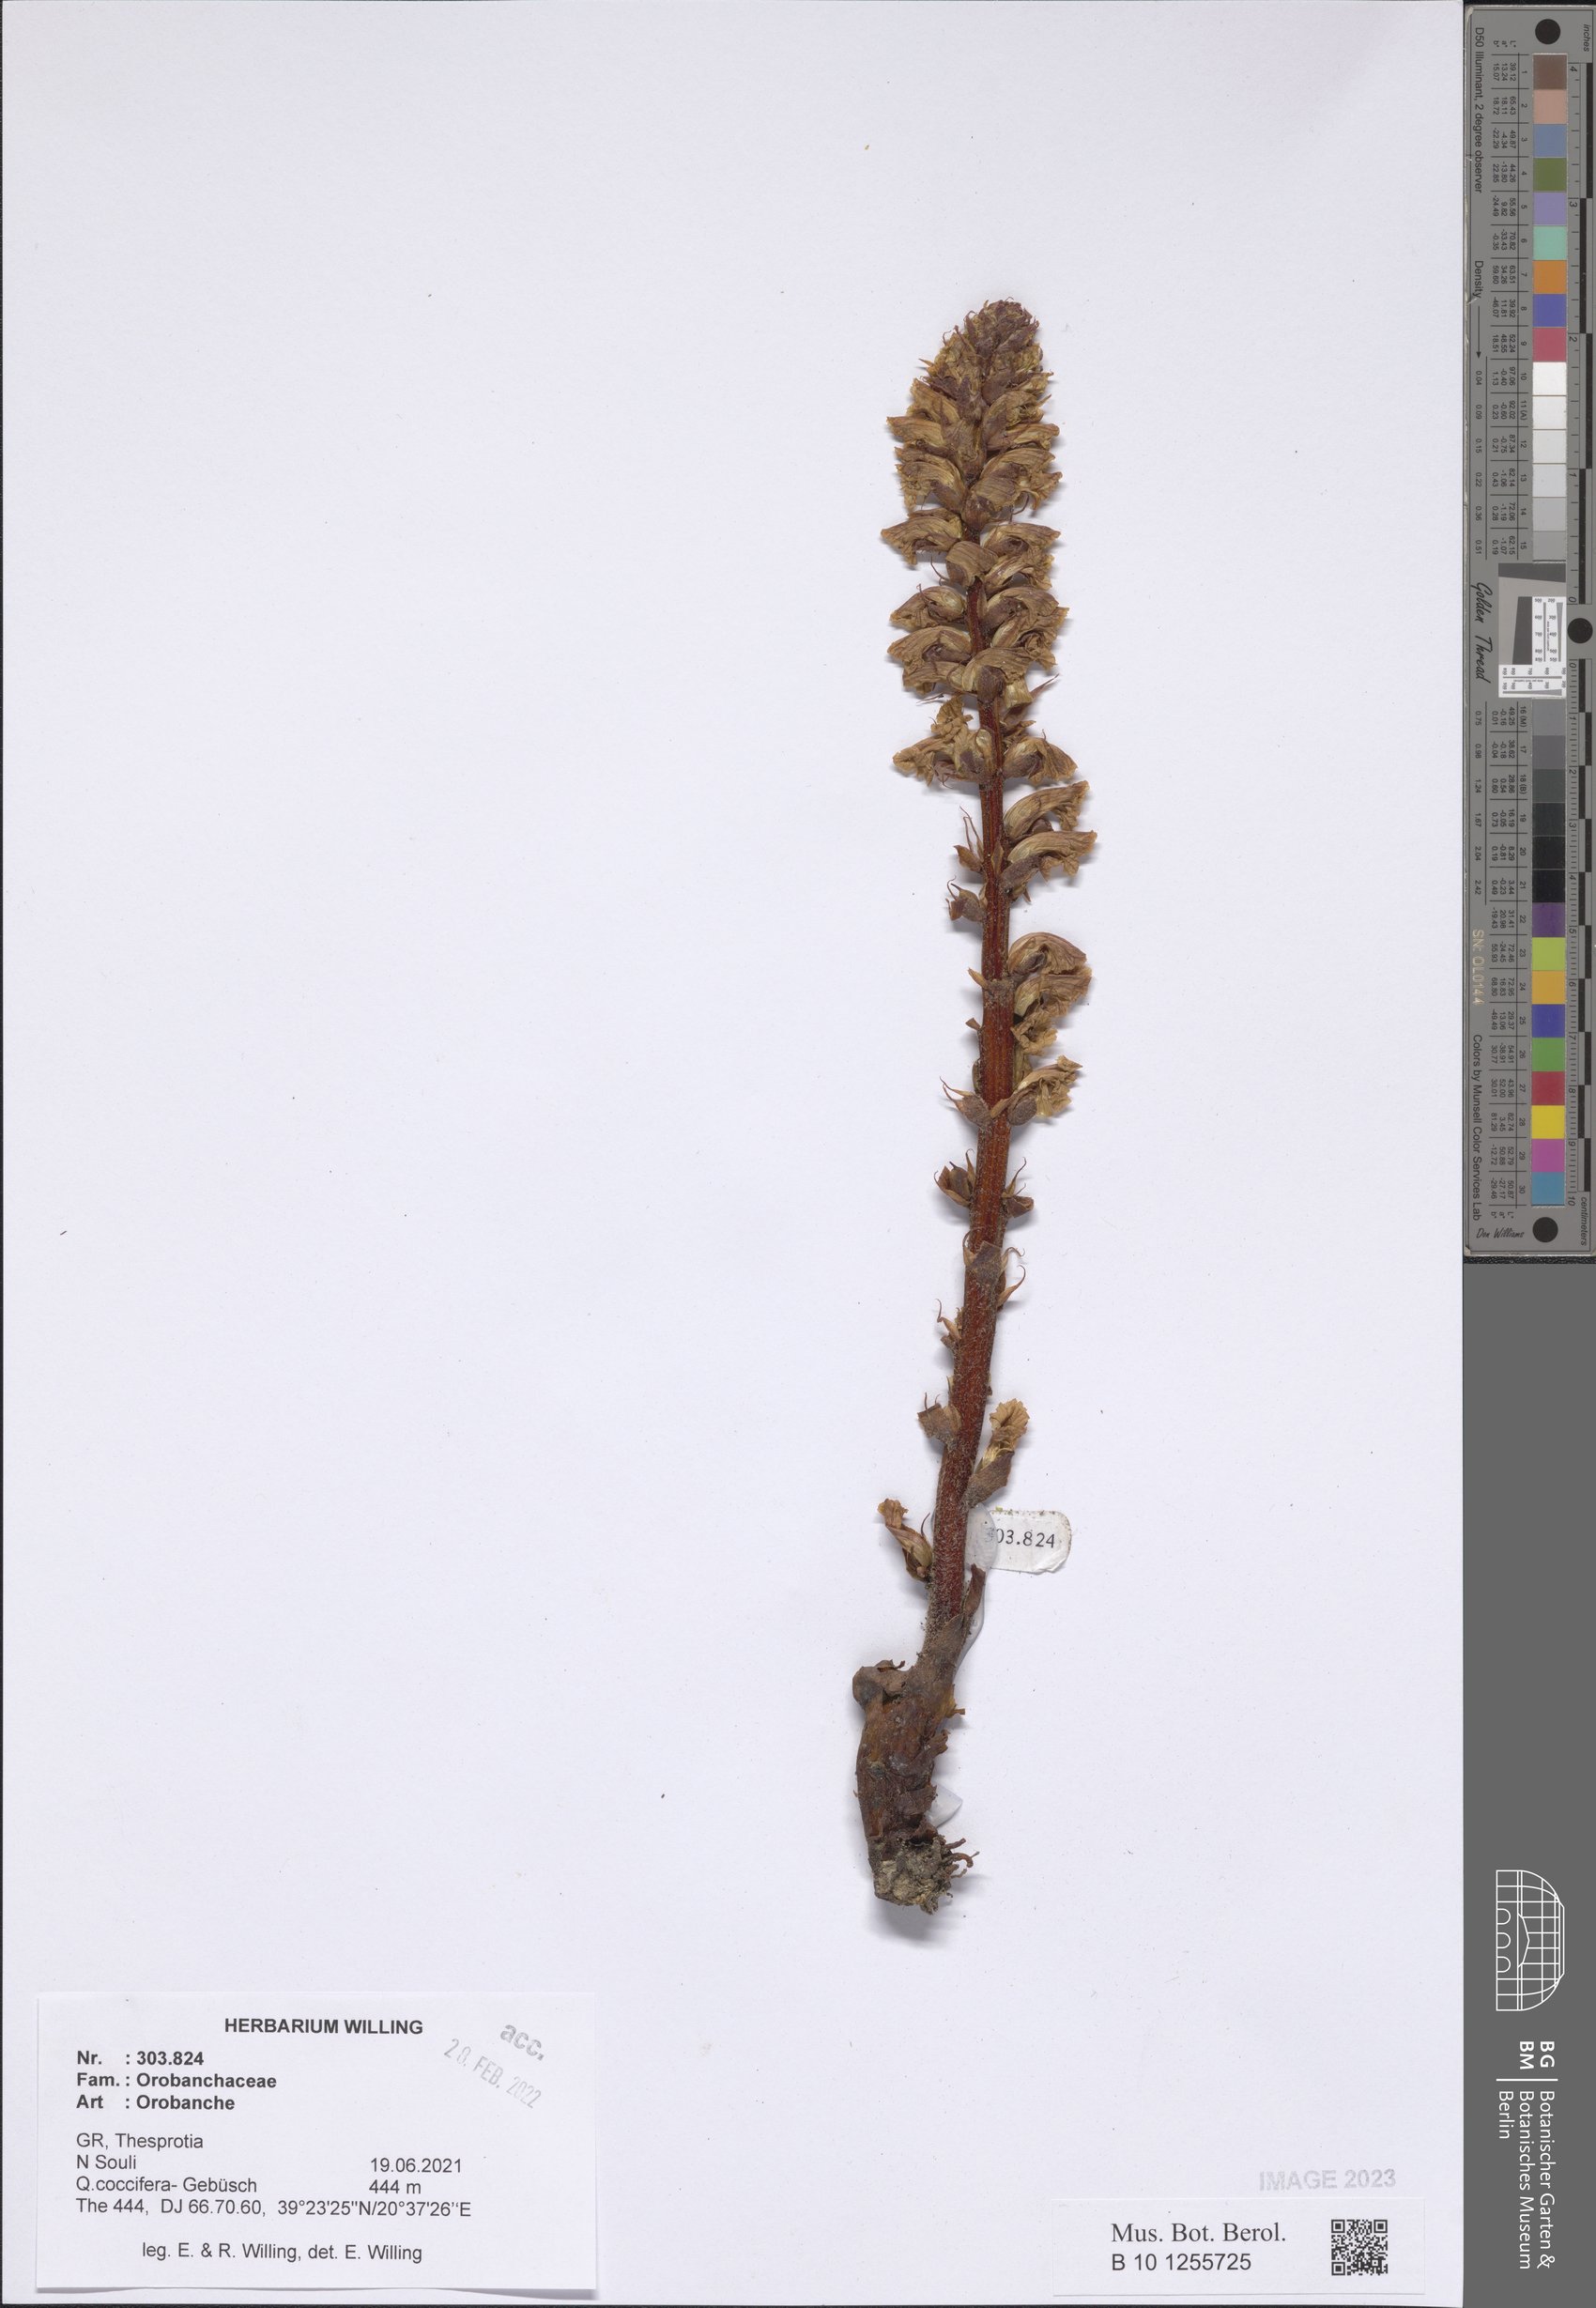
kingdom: Plantae
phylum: Tracheophyta
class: Magnoliopsida
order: Lamiales
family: Orobanchaceae
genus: Orobanche
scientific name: Orobanche
